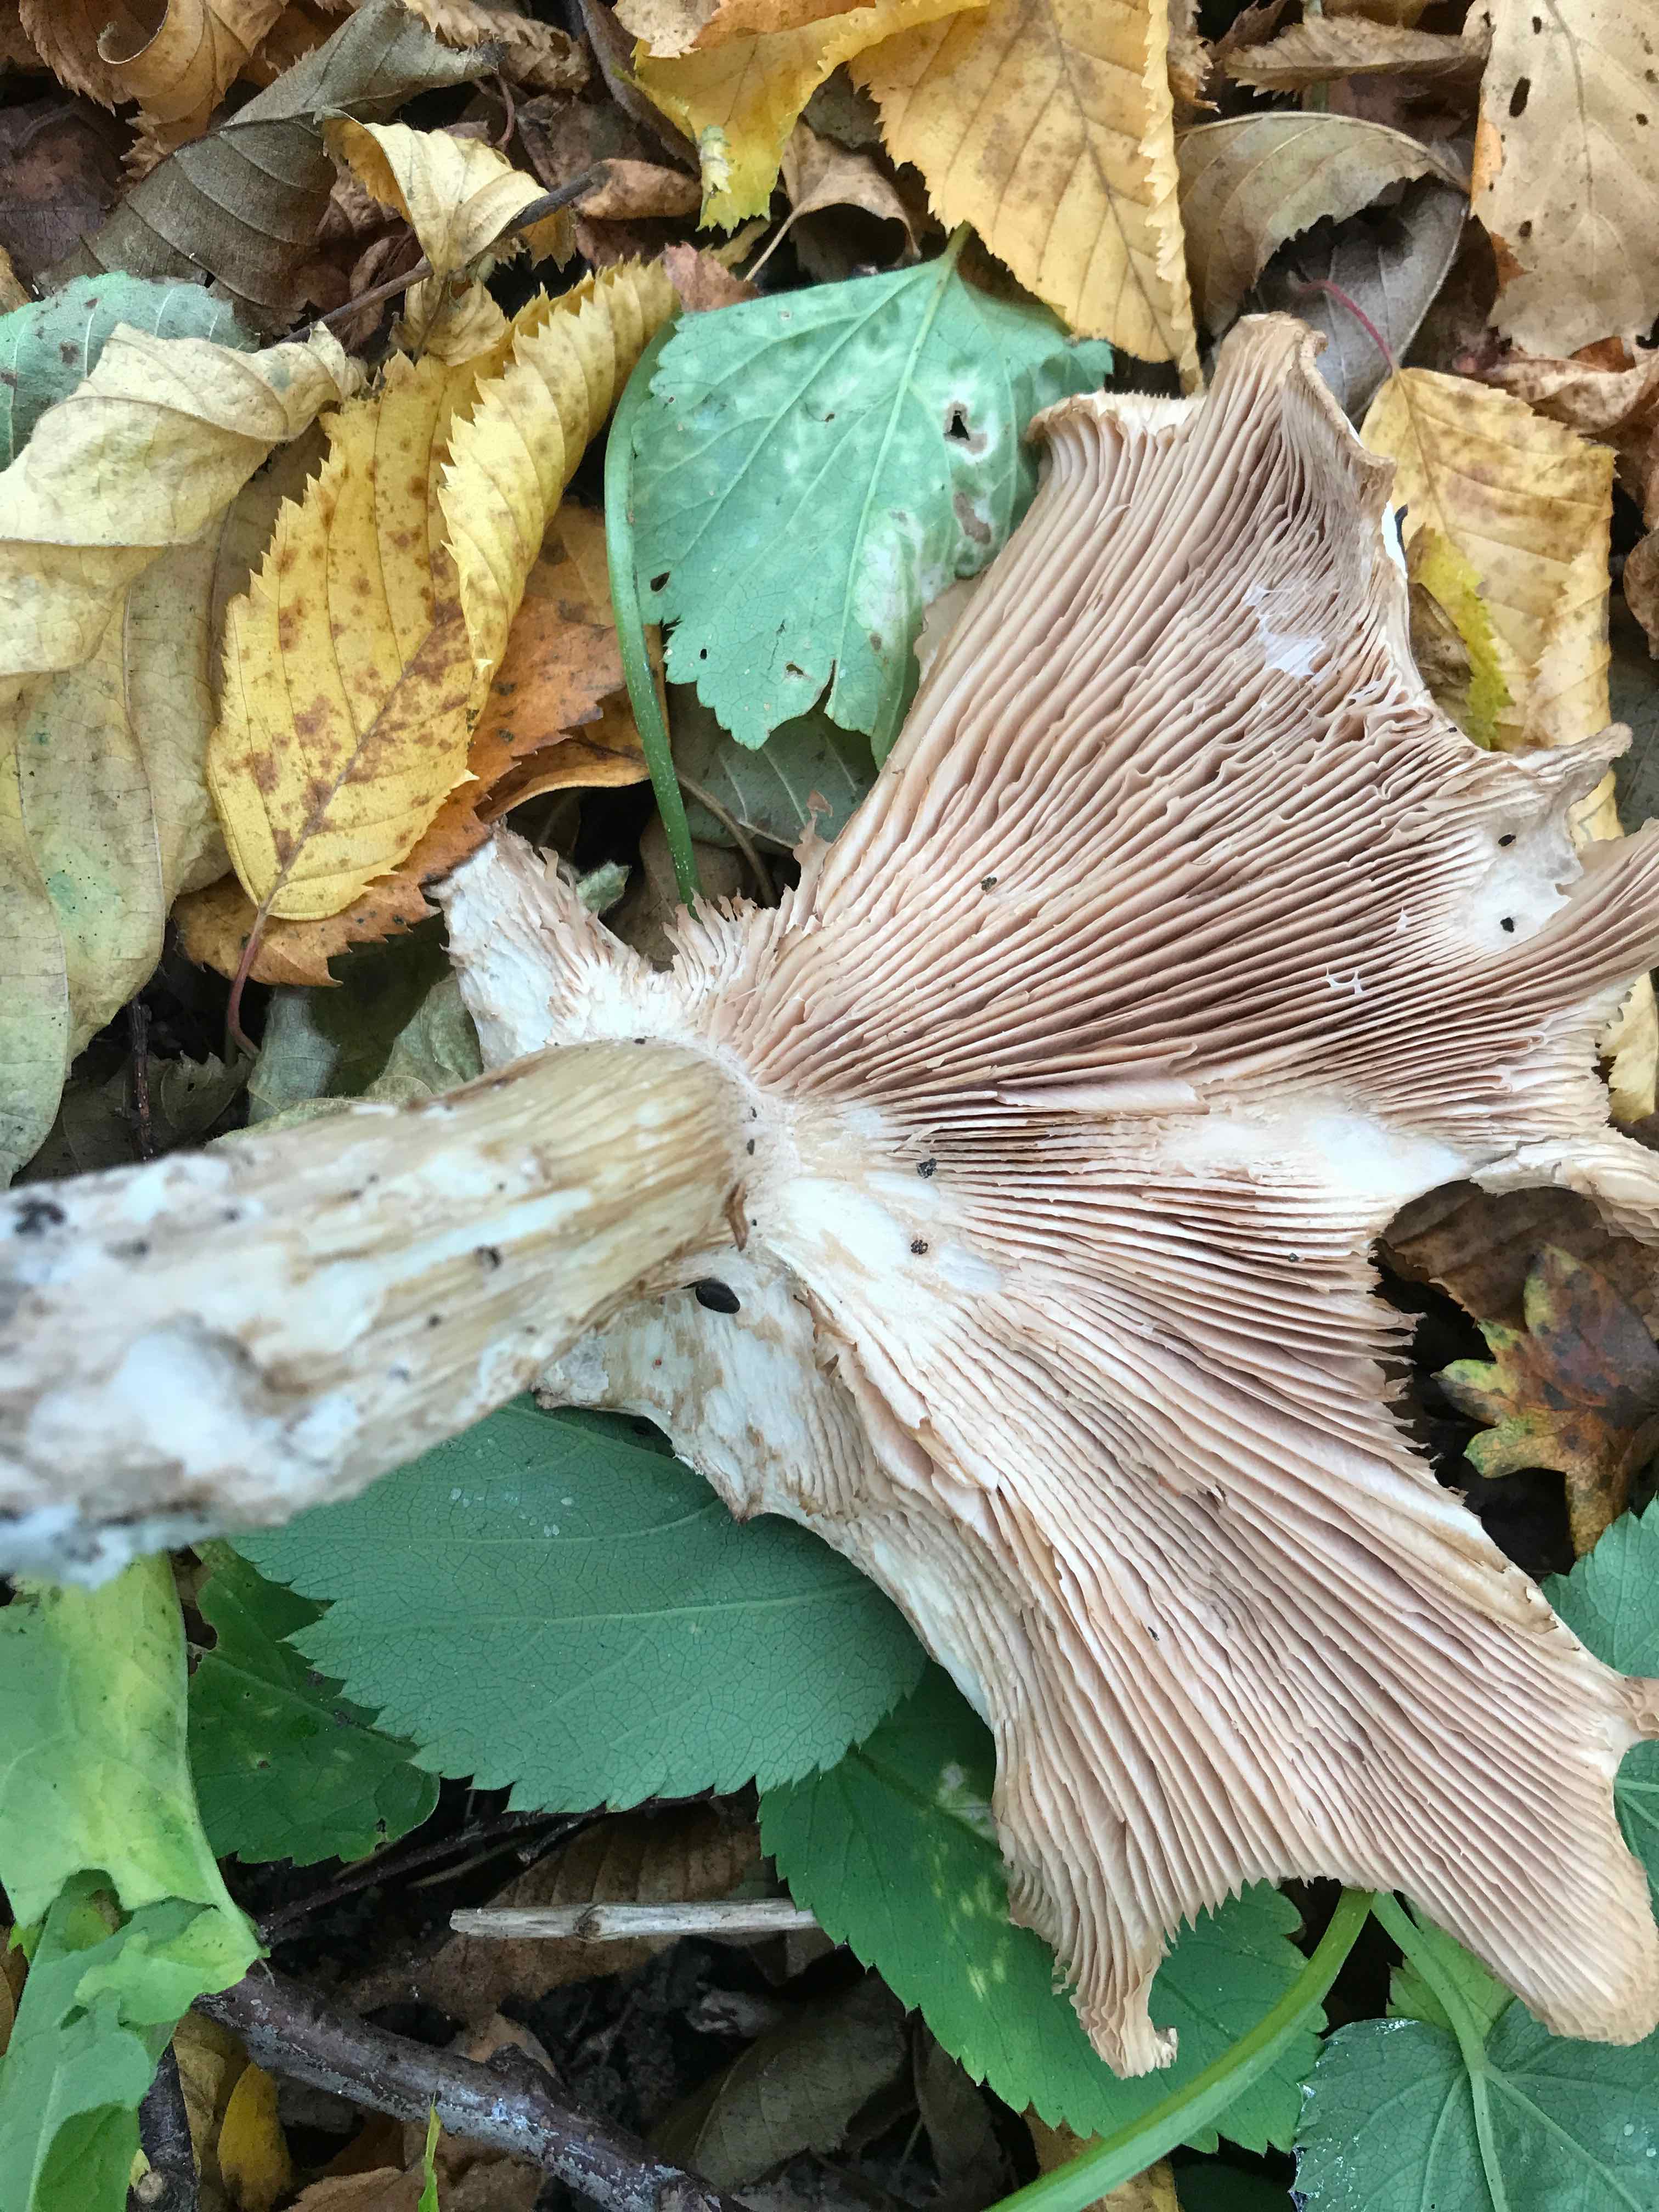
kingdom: Fungi
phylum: Basidiomycota
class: Agaricomycetes
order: Agaricales
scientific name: Agaricales
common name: champignonordenen
